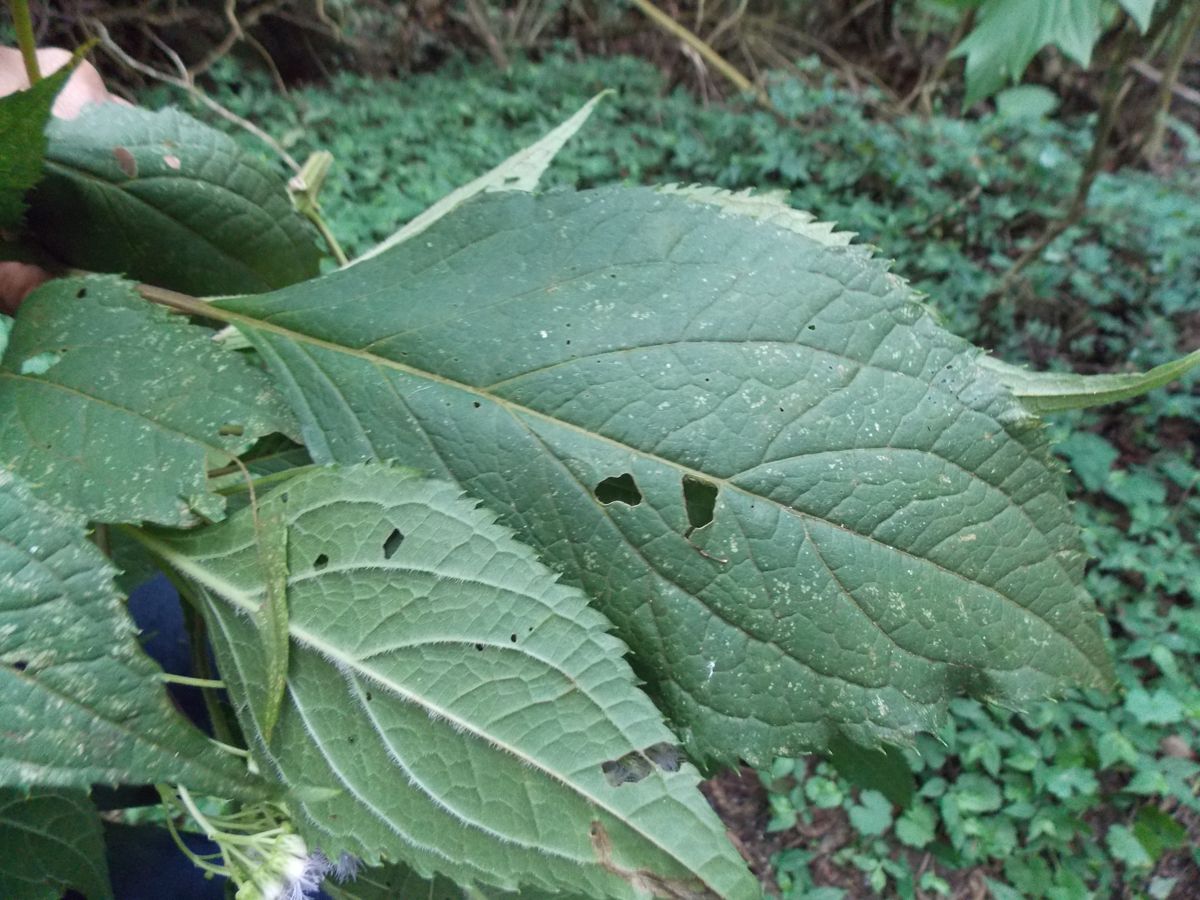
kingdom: Plantae
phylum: Tracheophyta
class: Magnoliopsida
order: Asterales
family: Asteraceae
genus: Bartlettina
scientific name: Bartlettina luxii
